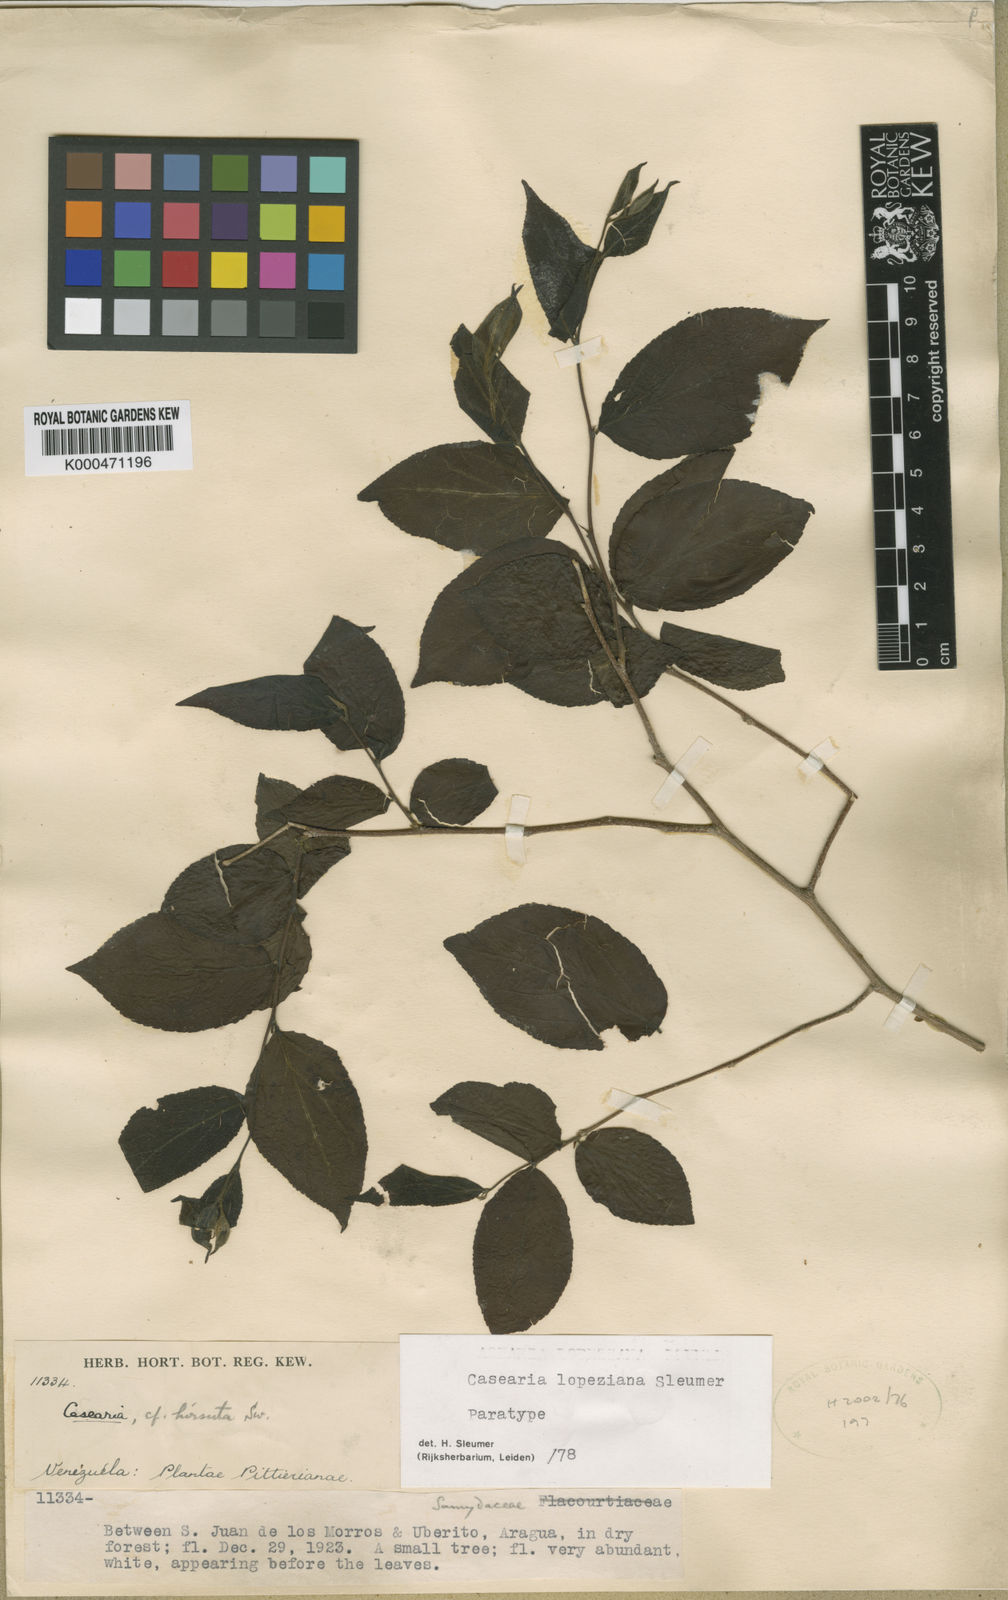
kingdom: Plantae
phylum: Tracheophyta
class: Magnoliopsida
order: Malpighiales
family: Salicaceae
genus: Casearia
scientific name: Casearia lopeziana
